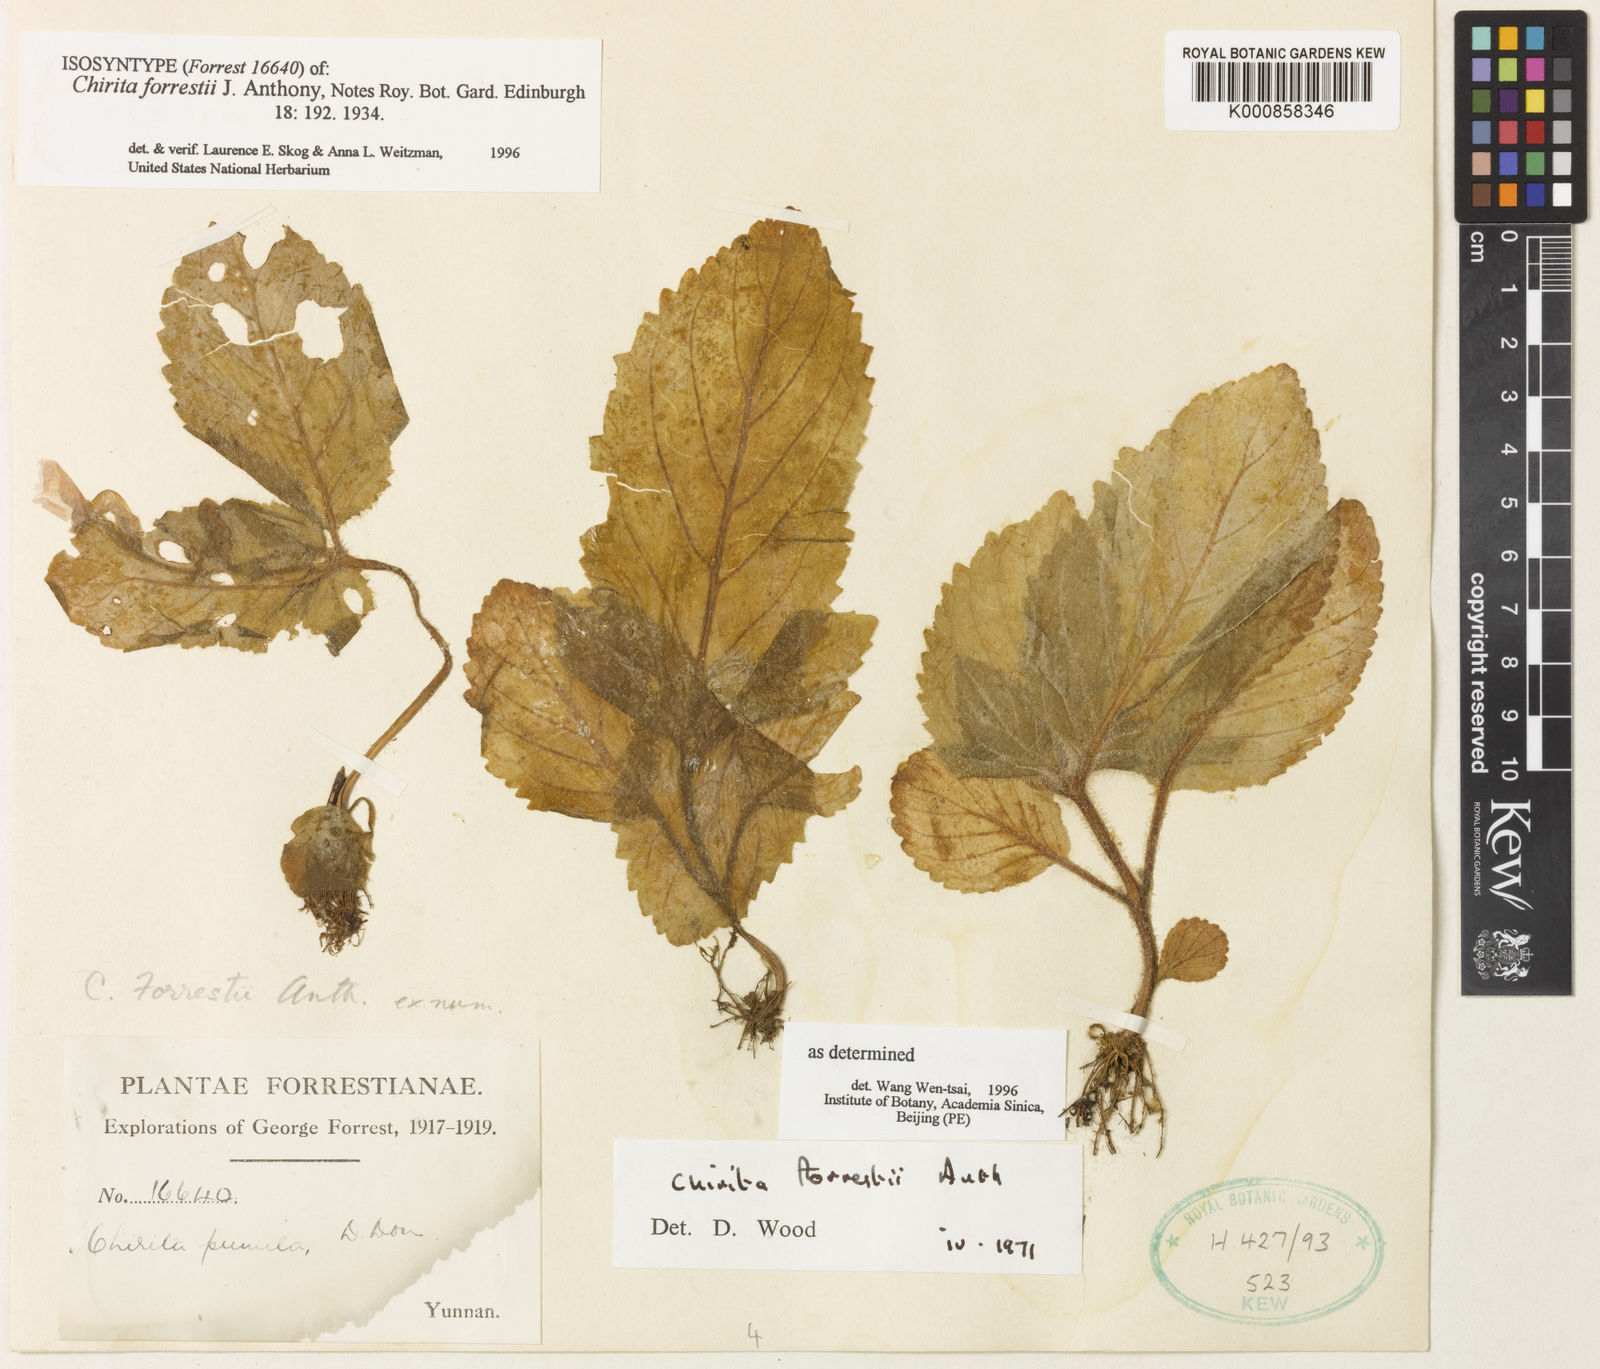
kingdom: Plantae
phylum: Tracheophyta
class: Magnoliopsida
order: Lamiales
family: Gesneriaceae
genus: Henckelia
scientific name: Henckelia forrestii
